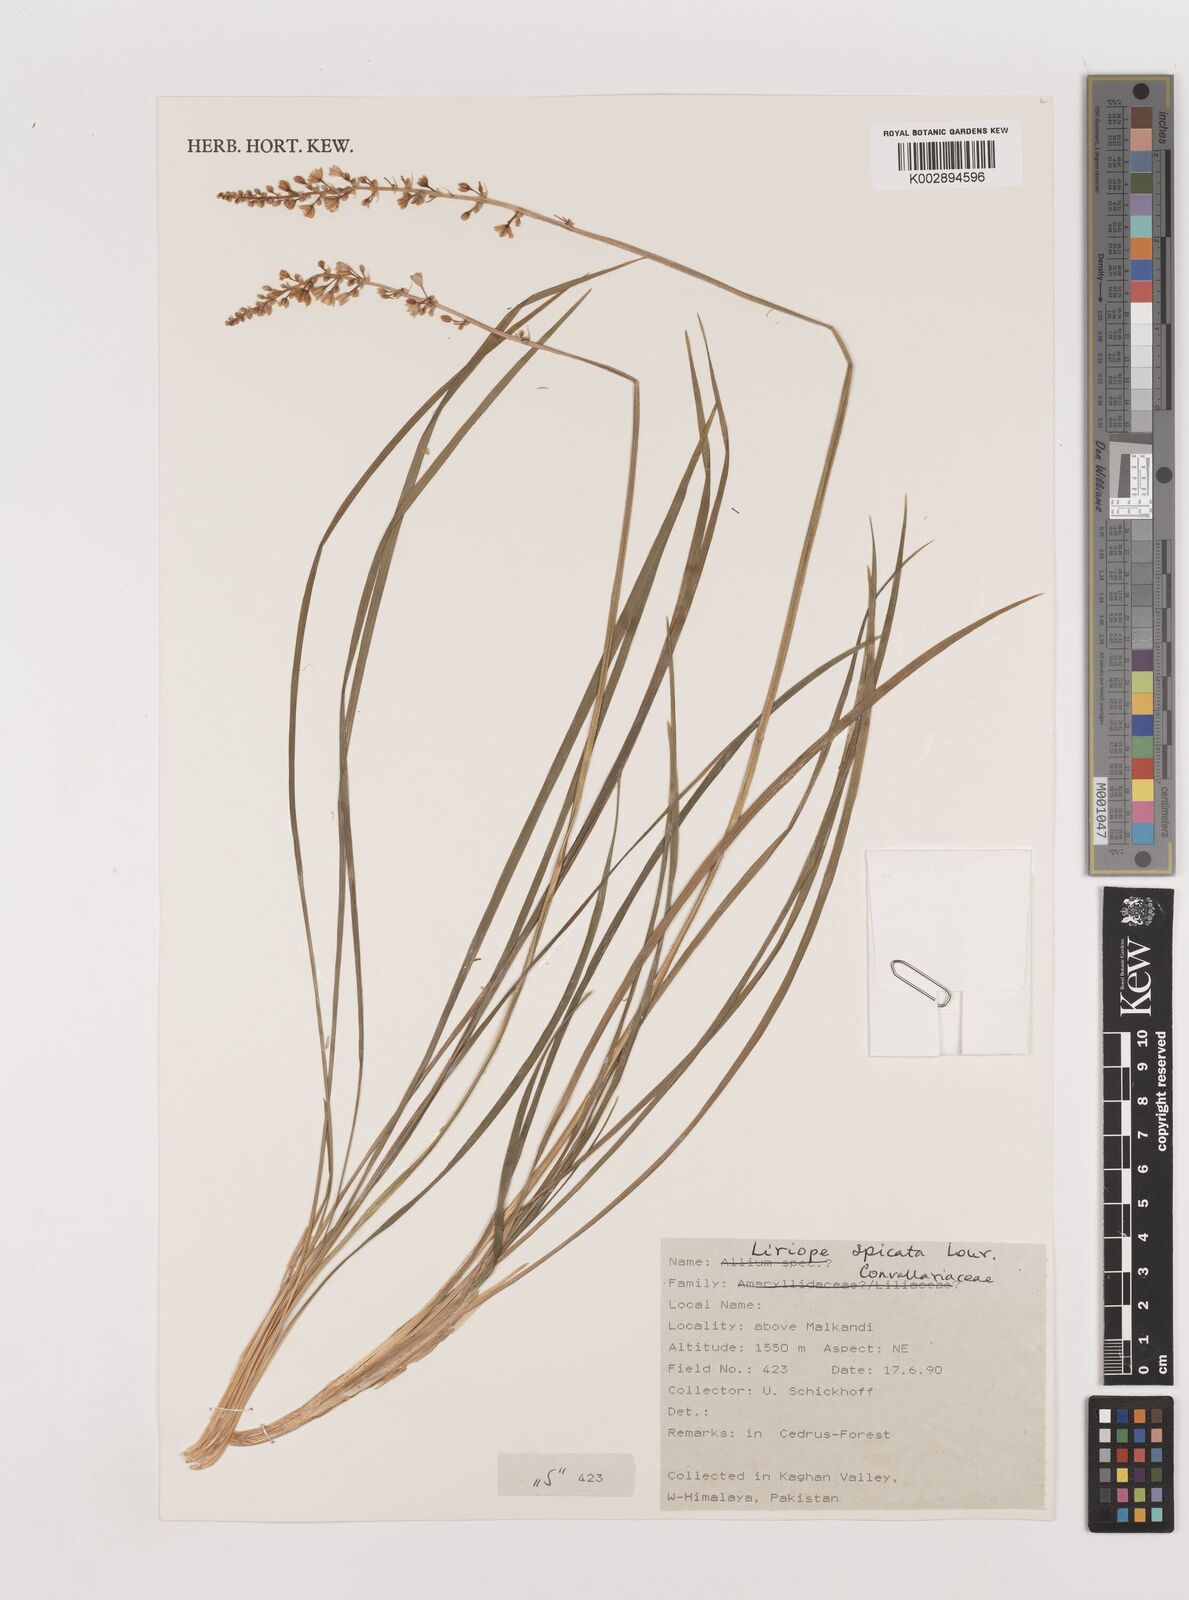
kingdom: Plantae
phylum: Tracheophyta
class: Liliopsida
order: Asparagales
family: Asparagaceae
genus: Liriope
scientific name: Liriope
